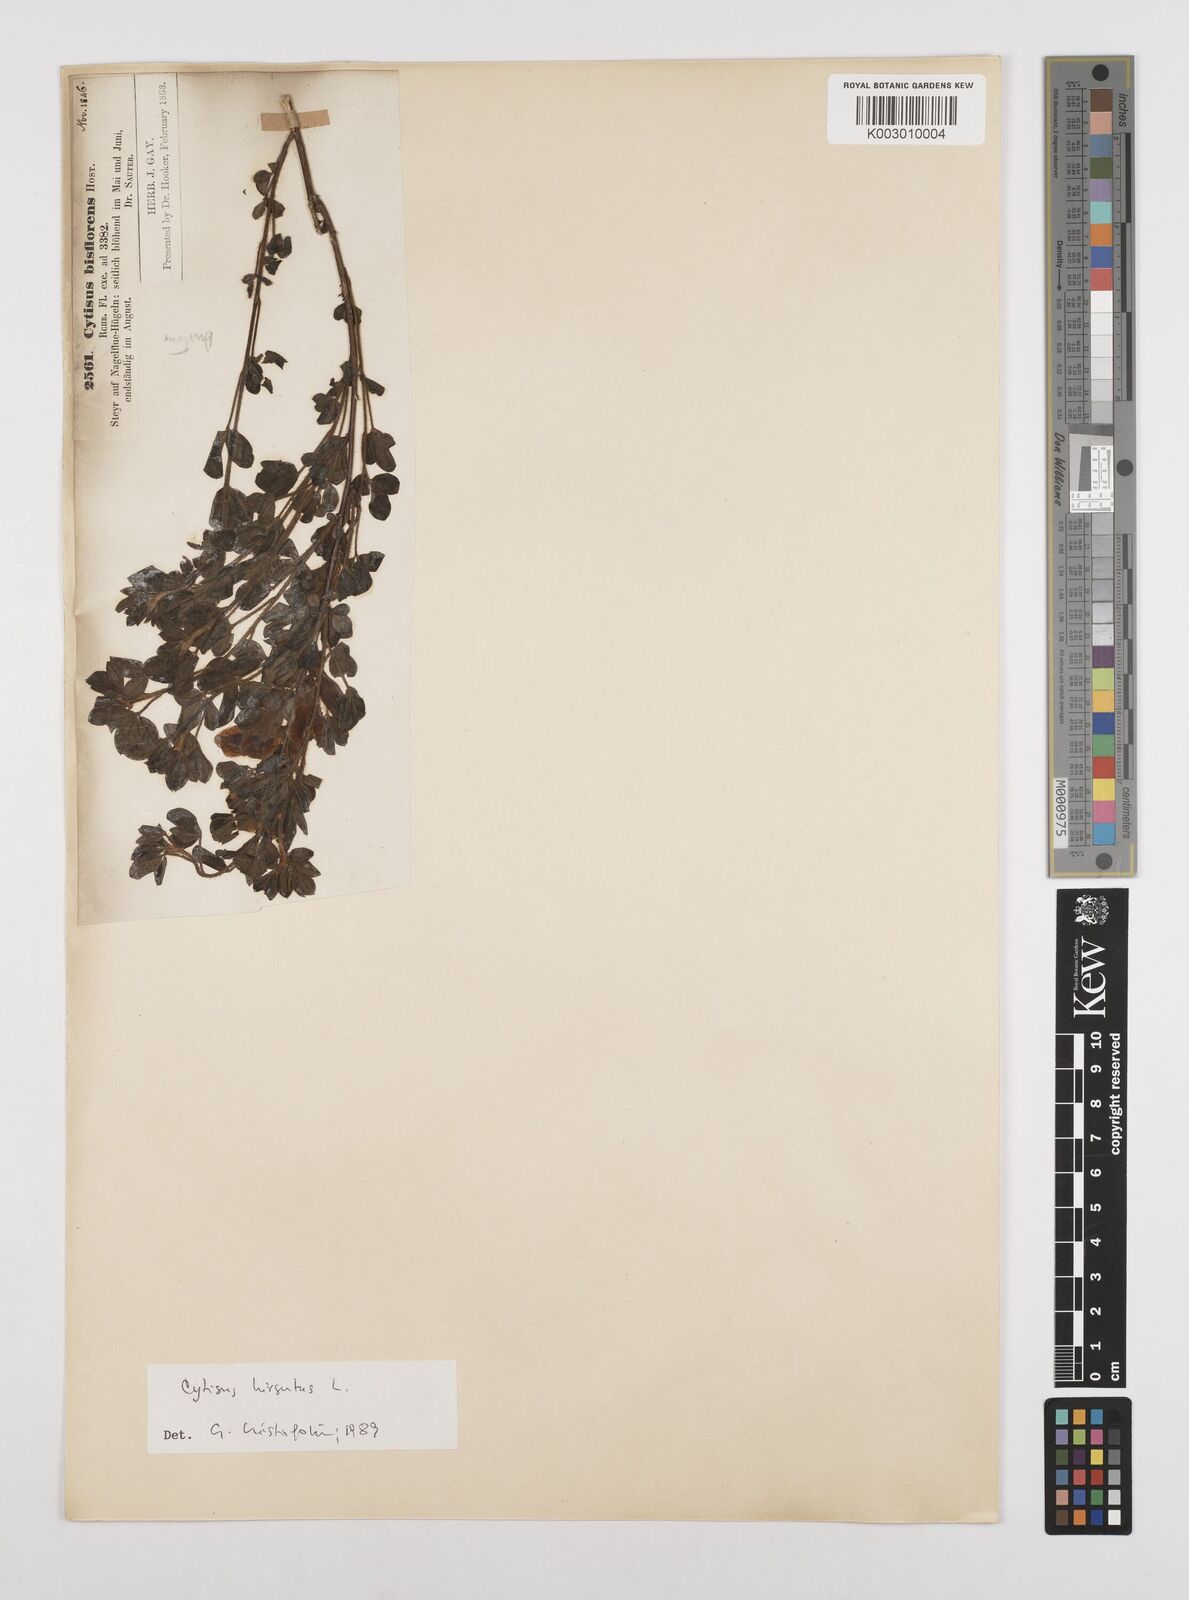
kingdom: Plantae
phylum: Tracheophyta
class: Magnoliopsida
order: Fabales
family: Fabaceae
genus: Chamaecytisus
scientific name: Chamaecytisus hirsutus
